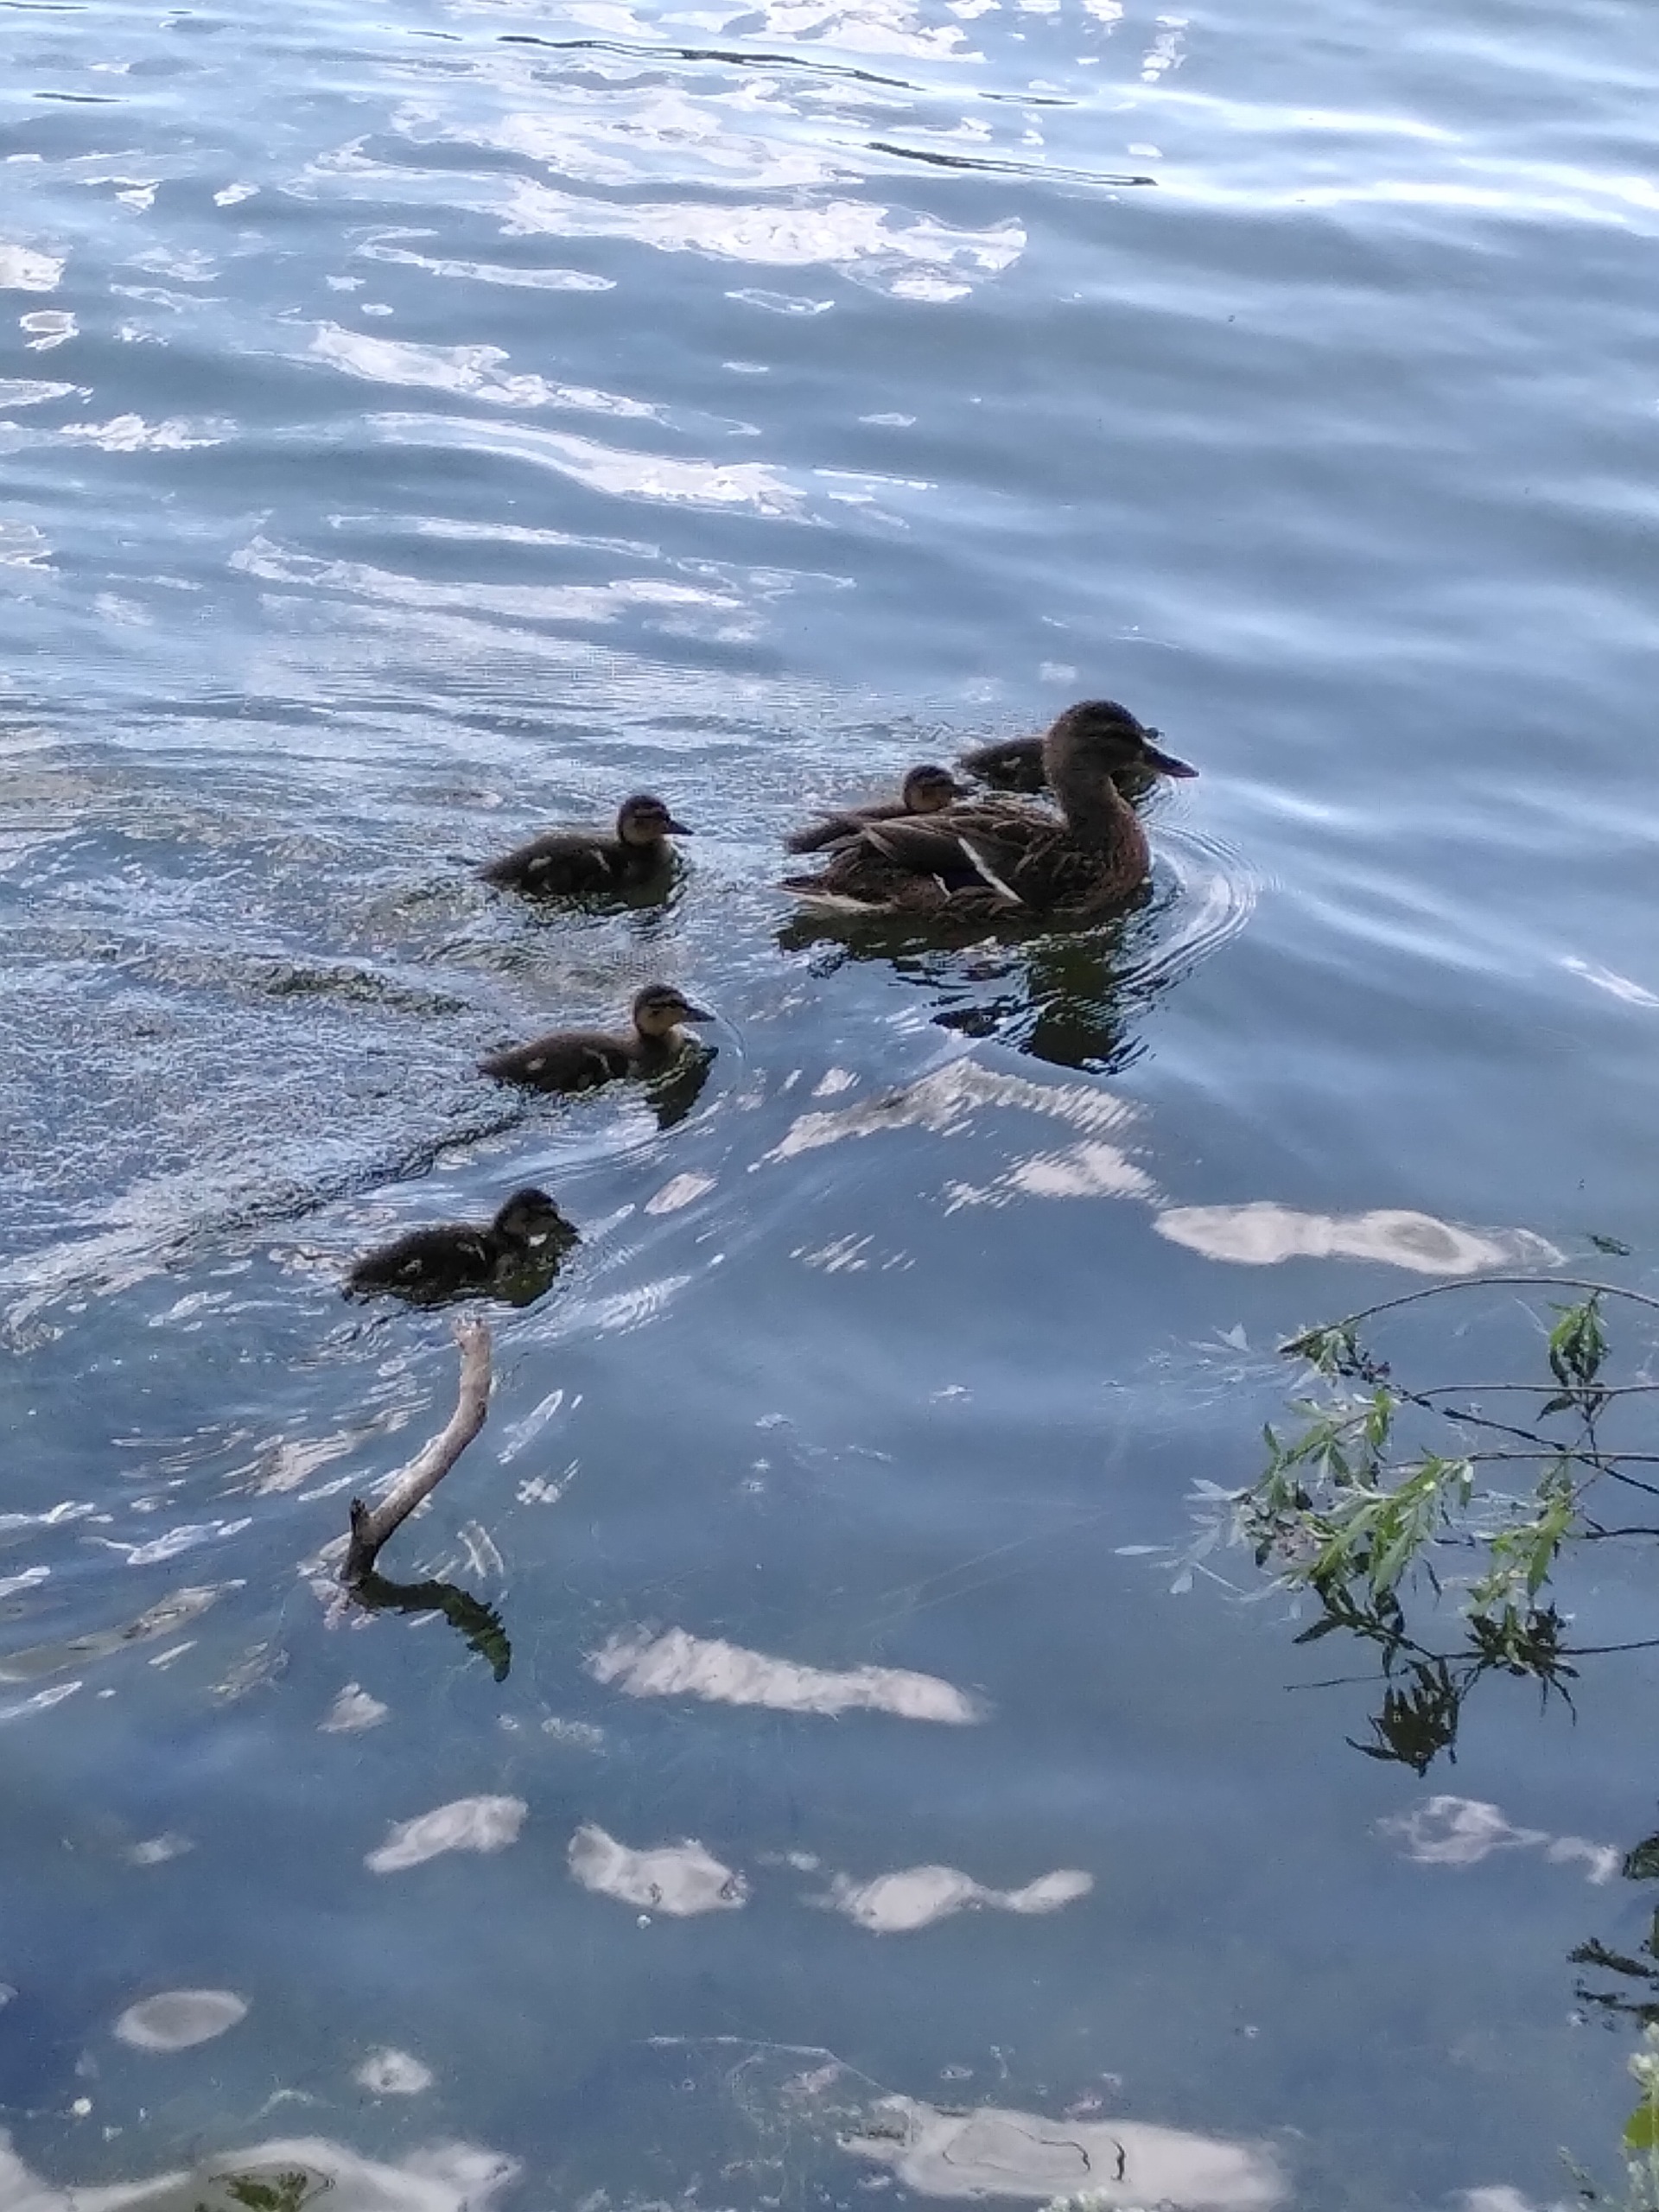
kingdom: Animalia
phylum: Chordata
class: Aves
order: Anseriformes
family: Anatidae
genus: Anas
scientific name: Anas platyrhynchos
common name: Gråand
